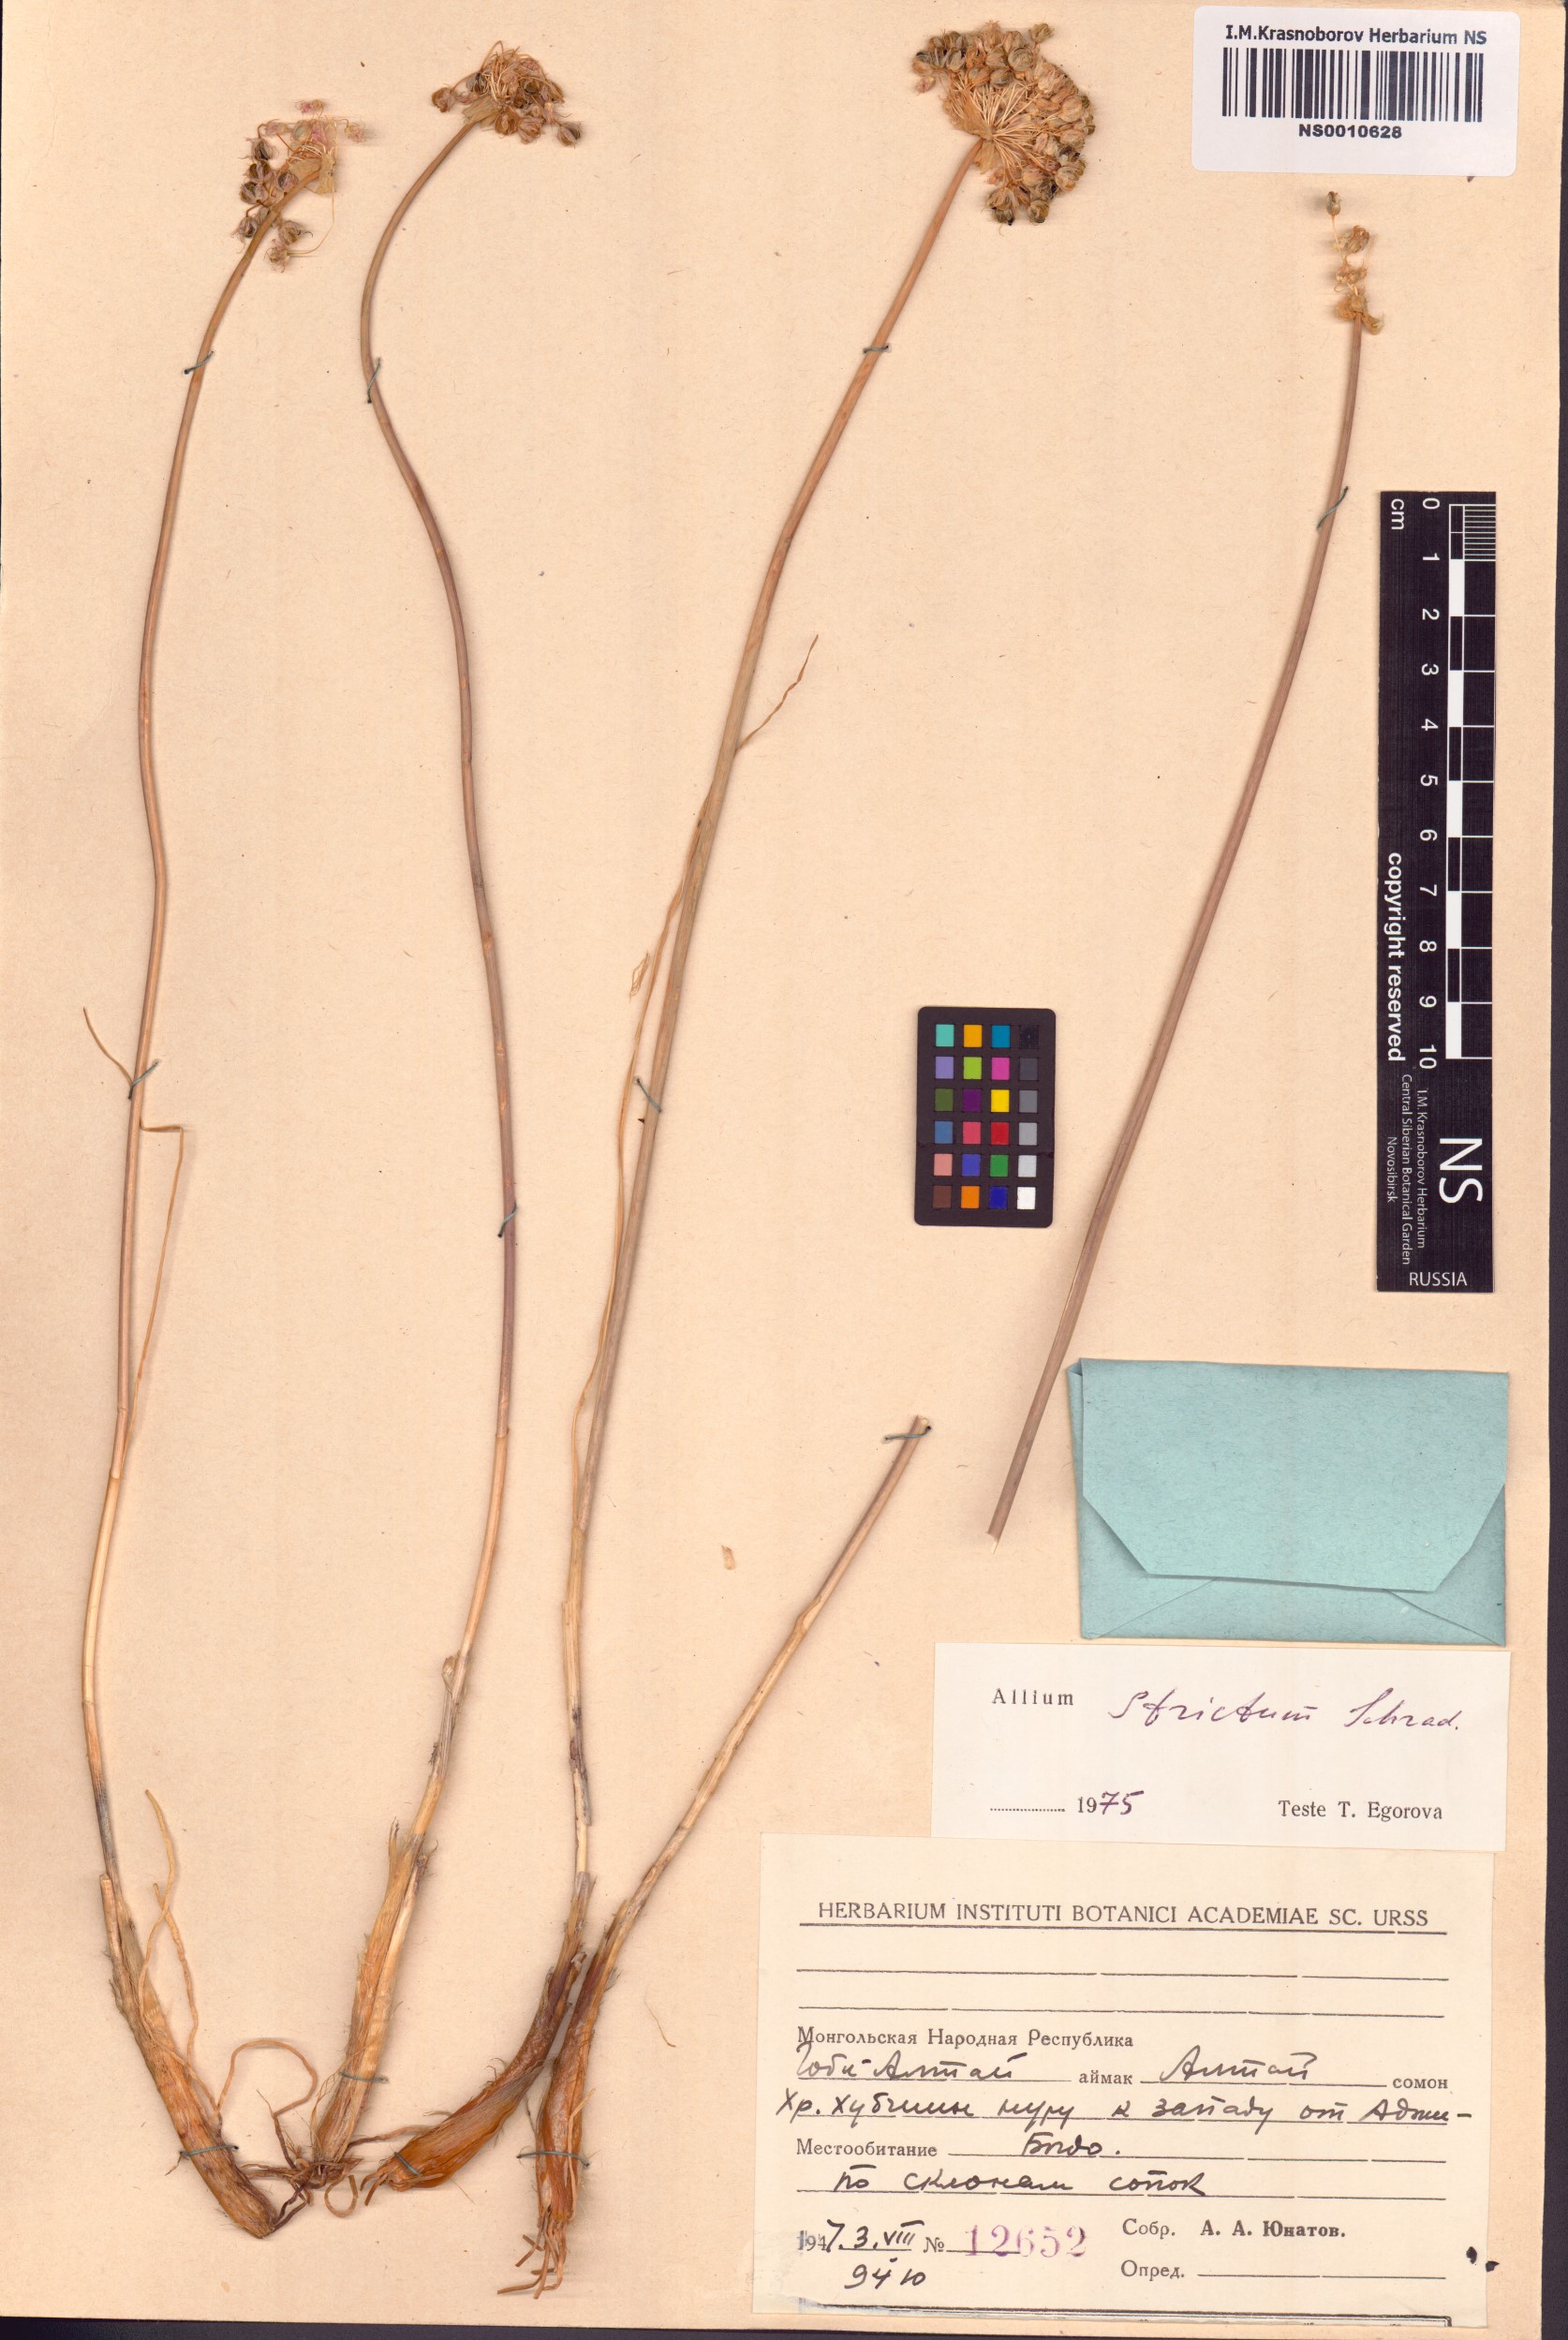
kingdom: Plantae
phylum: Tracheophyta
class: Liliopsida
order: Asparagales
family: Amaryllidaceae
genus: Allium
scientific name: Allium strictum
